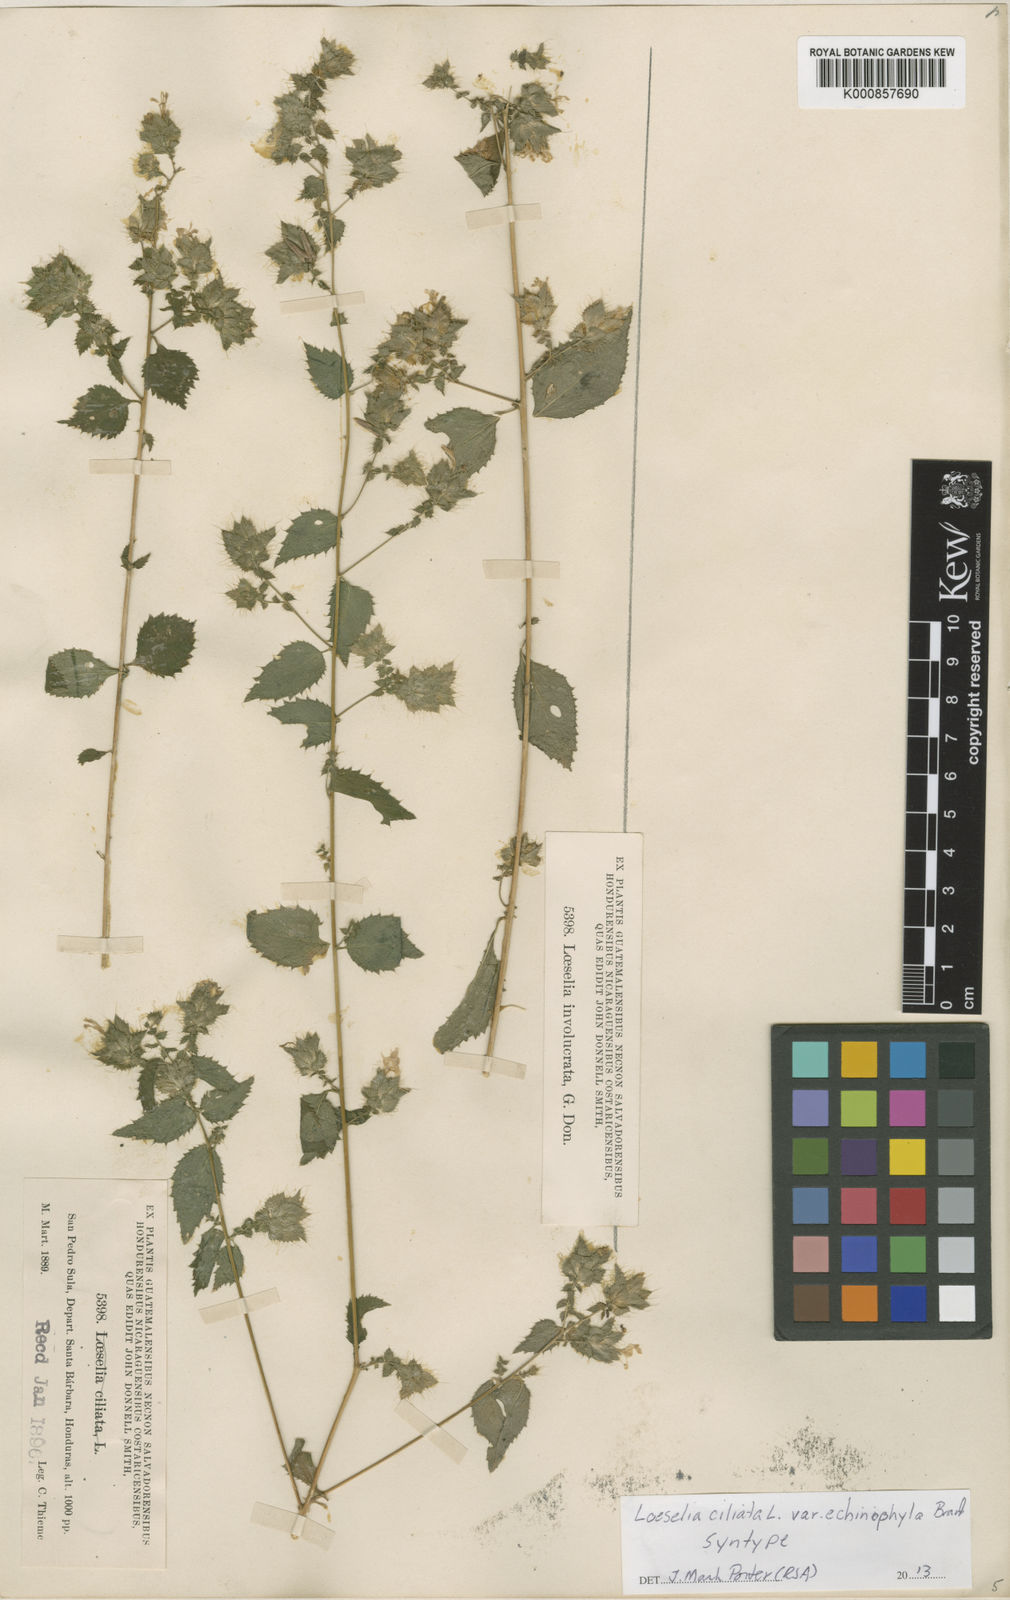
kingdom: Plantae
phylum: Tracheophyta
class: Magnoliopsida
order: Ericales
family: Polemoniaceae
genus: Loeselia
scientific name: Loeselia ciliata
